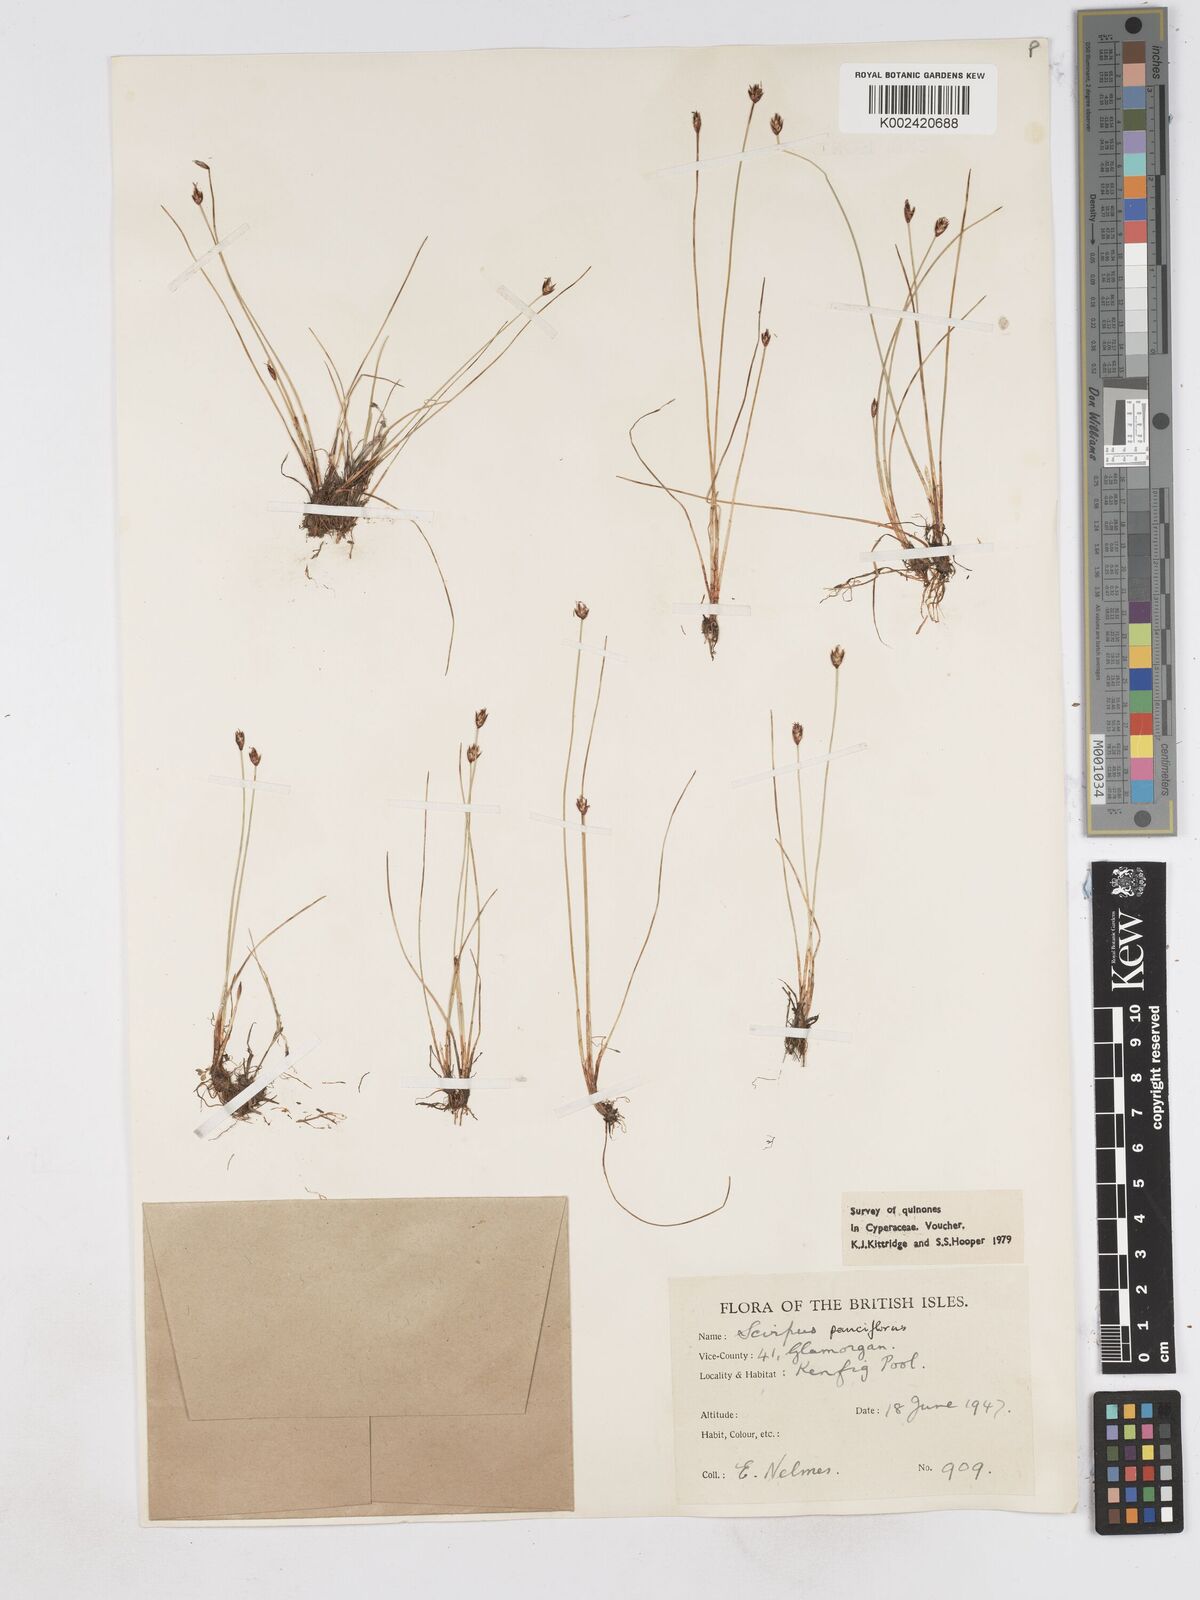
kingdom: Plantae
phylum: Tracheophyta
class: Liliopsida
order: Poales
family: Cyperaceae
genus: Eleocharis
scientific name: Eleocharis quinqueflora
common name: Few-flowered spike-rush
